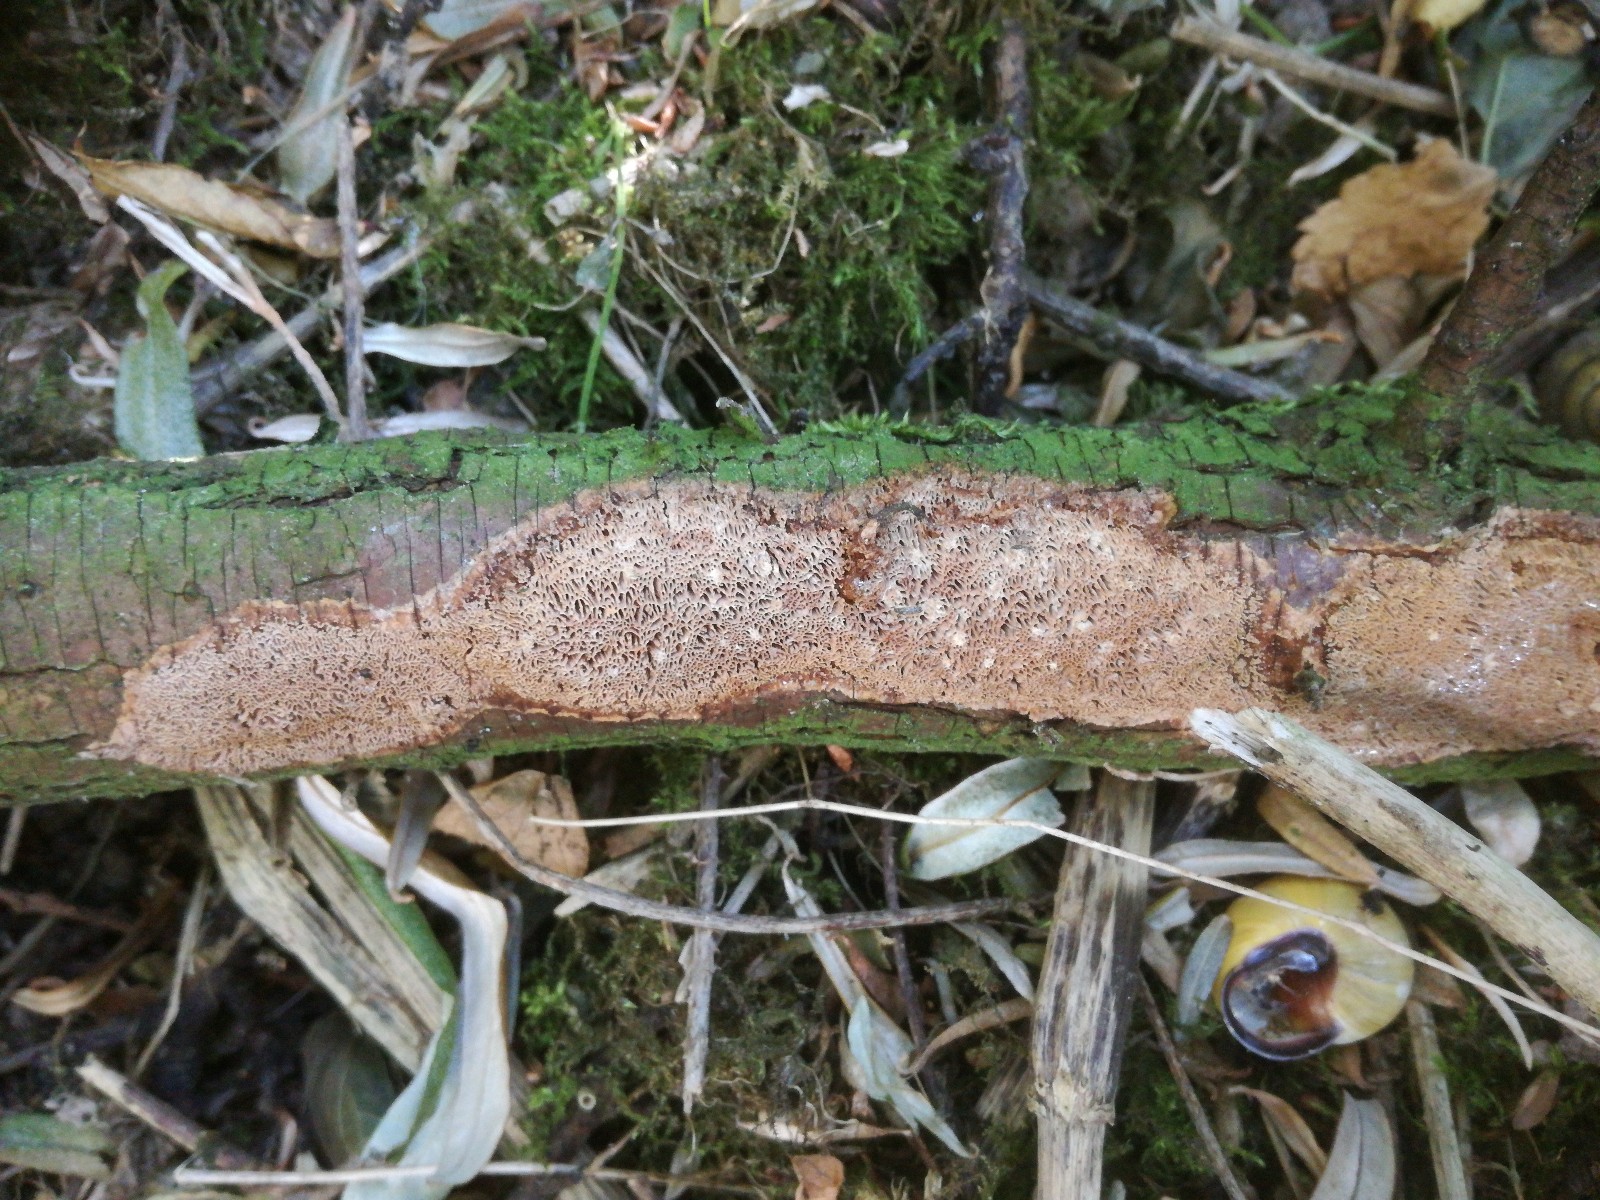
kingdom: Fungi
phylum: Basidiomycota
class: Agaricomycetes
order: Hymenochaetales
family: Hymenochaetaceae
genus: Fuscoporia
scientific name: Fuscoporia contigua
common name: grov ildporesvamp
